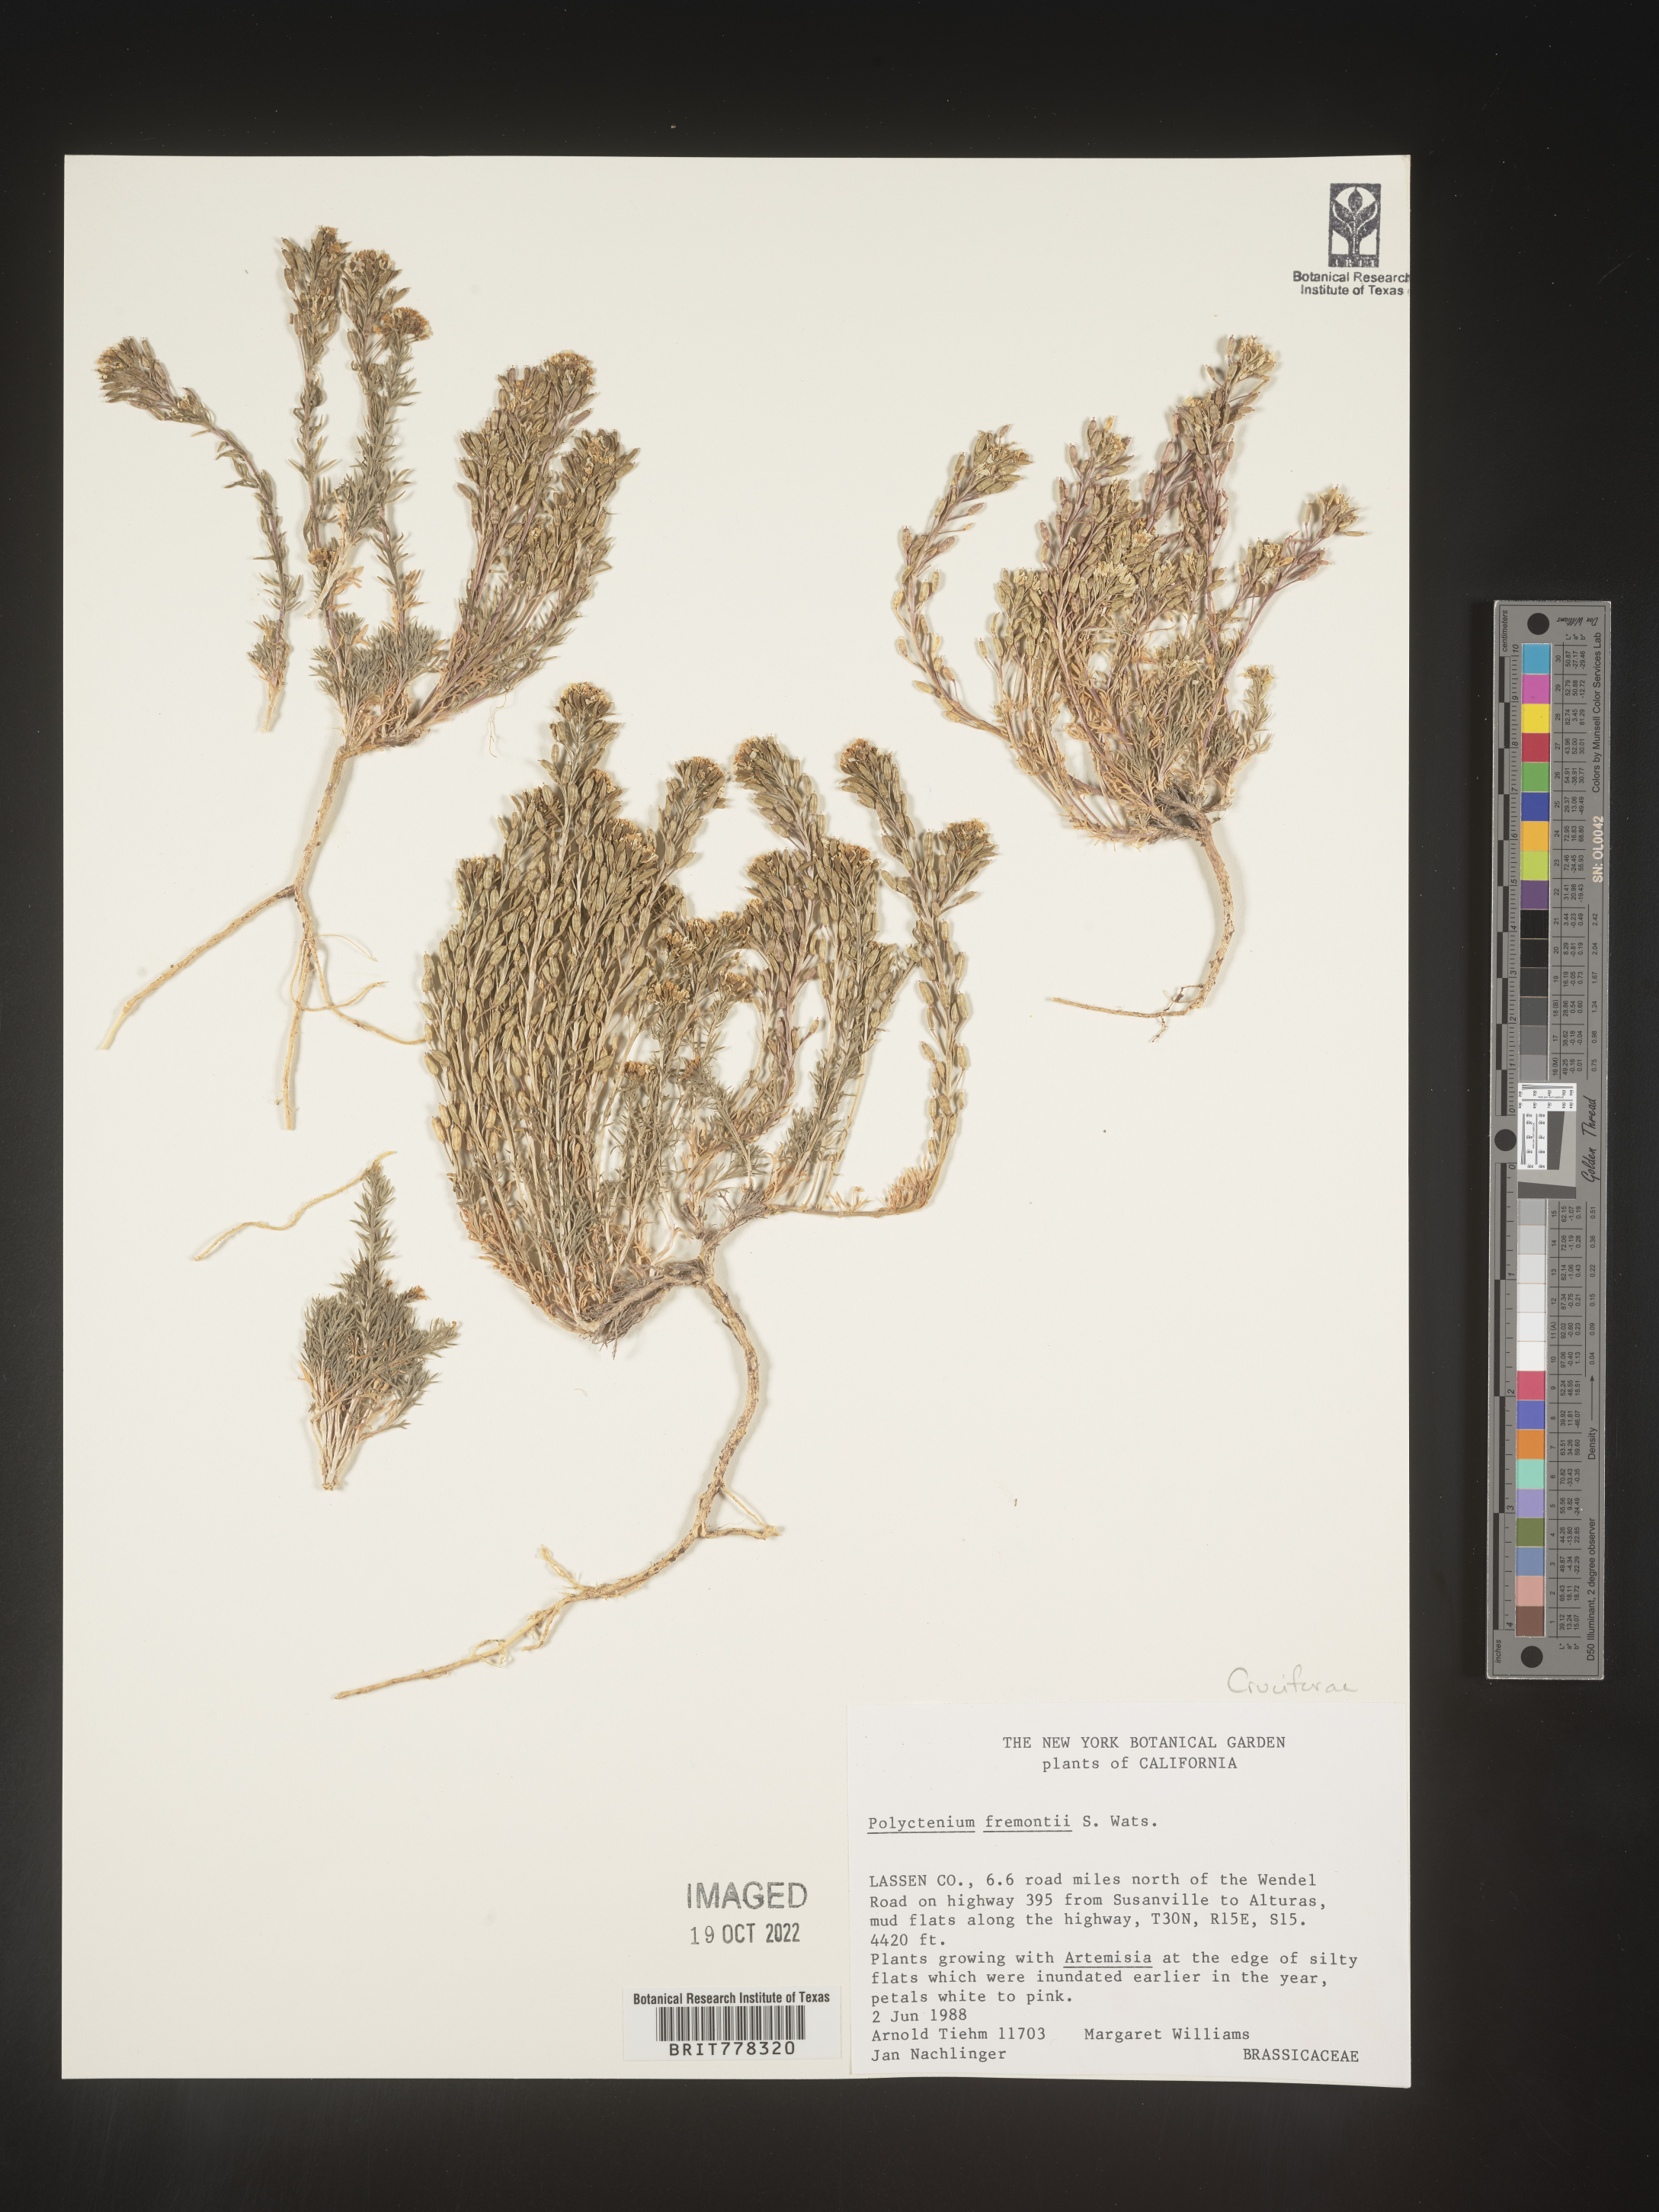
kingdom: Plantae
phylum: Tracheophyta
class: Magnoliopsida
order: Brassicales
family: Brassicaceae
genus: Polyctenium
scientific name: Polyctenium
